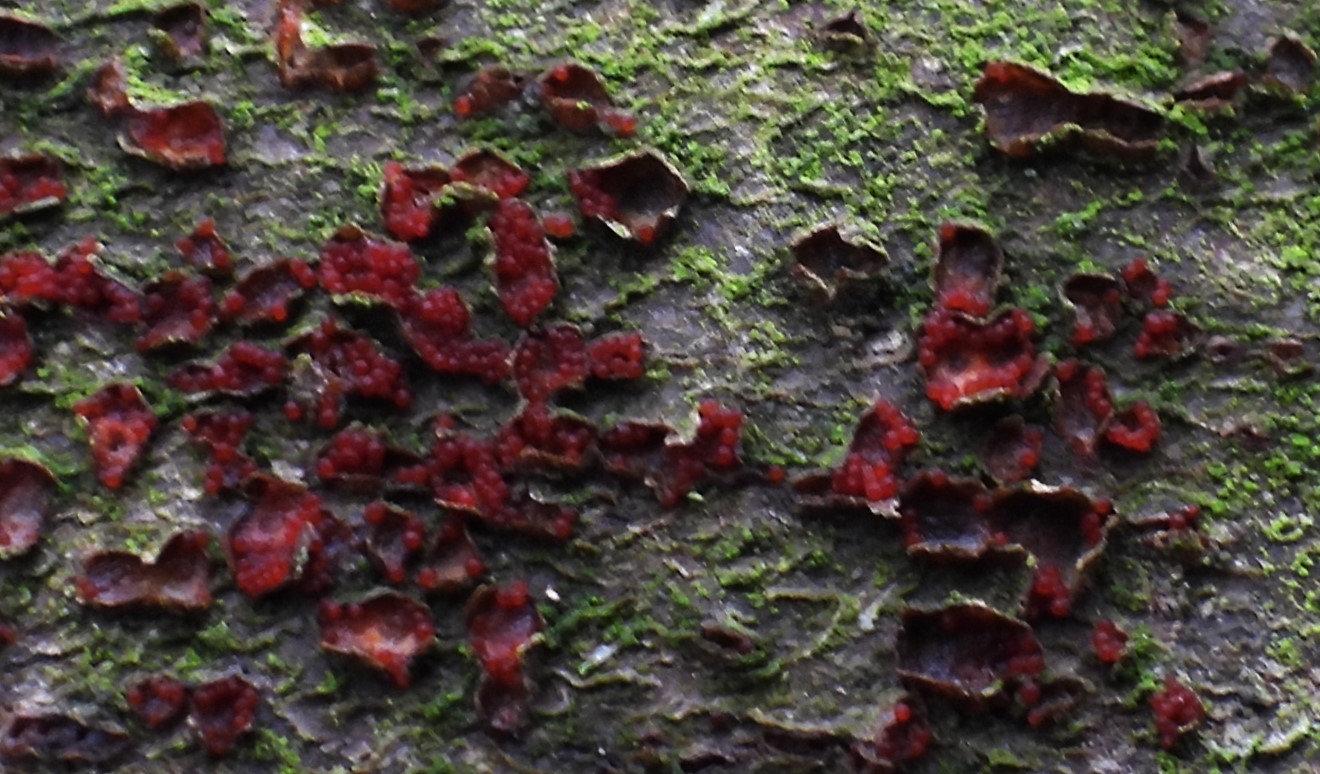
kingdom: Fungi
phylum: Ascomycota
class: Sordariomycetes
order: Hypocreales
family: Nectriaceae
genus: Neonectria
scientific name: Neonectria coccinea
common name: bøgebark-cinnobersvamp
